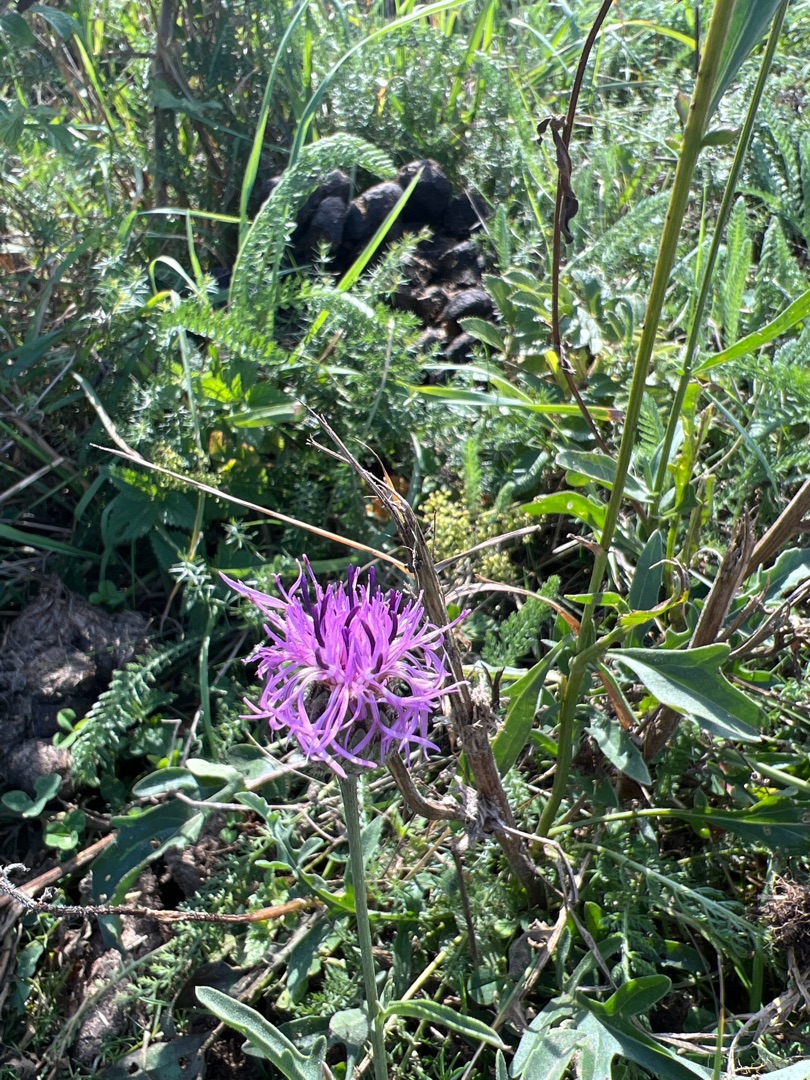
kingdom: Plantae
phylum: Tracheophyta
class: Magnoliopsida
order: Asterales
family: Asteraceae
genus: Centaurea
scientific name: Centaurea scabiosa
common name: Stor knopurt
